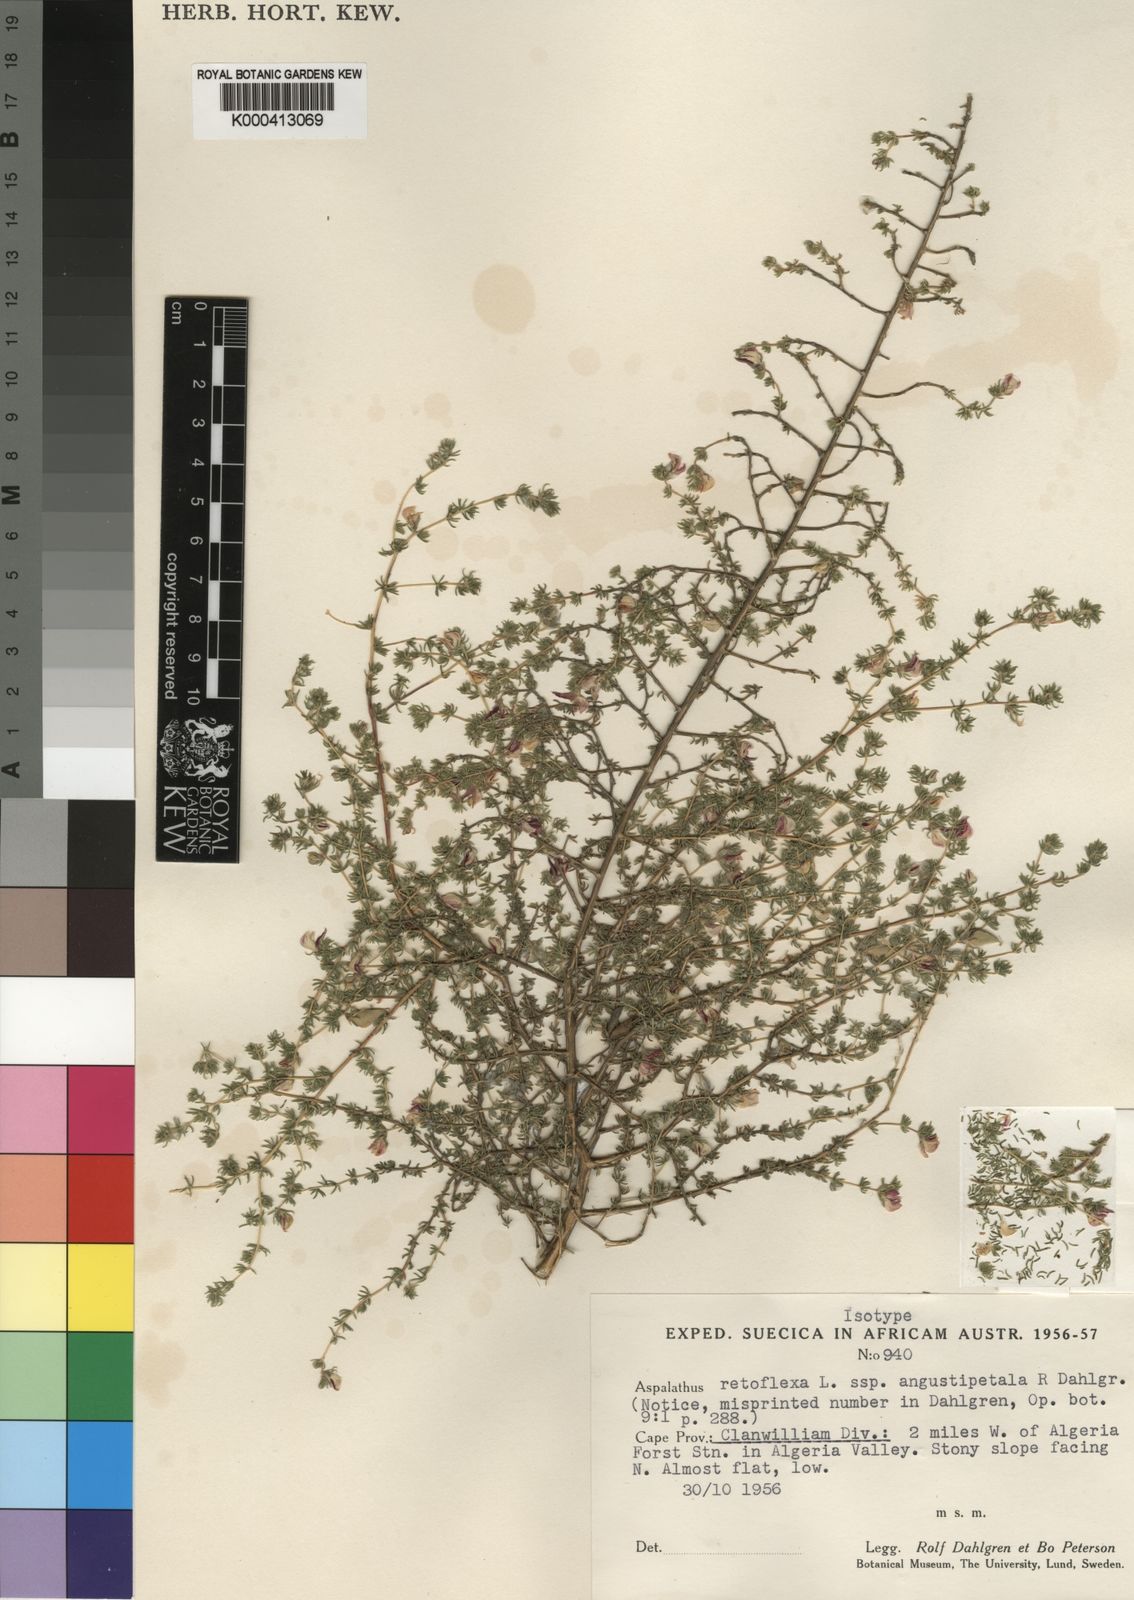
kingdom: Plantae
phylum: Tracheophyta
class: Magnoliopsida
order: Fabales
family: Fabaceae
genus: Aspalathus
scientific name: Aspalathus retroflexa
